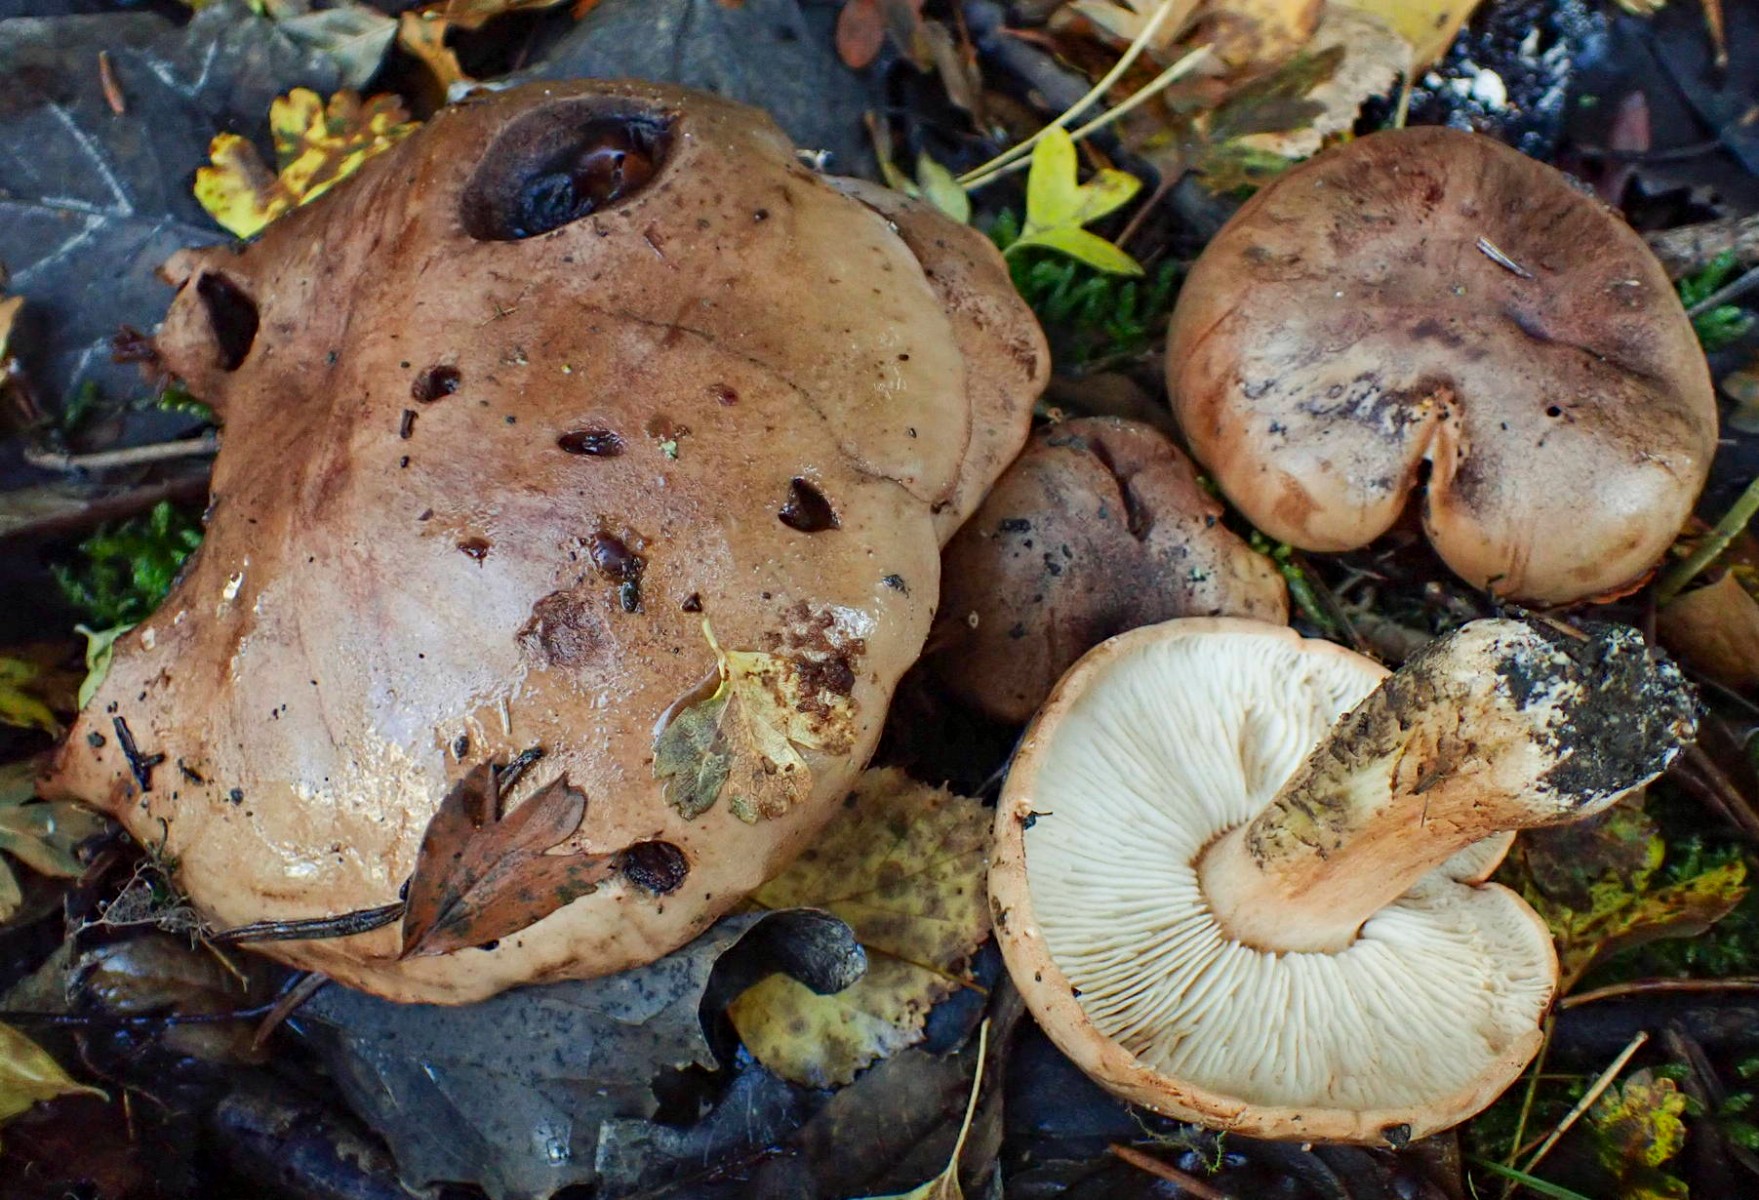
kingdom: Fungi
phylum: Basidiomycota
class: Agaricomycetes
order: Agaricales
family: Tricholomataceae
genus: Tricholoma
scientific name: Tricholoma populinum
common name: poppel-ridderhat
